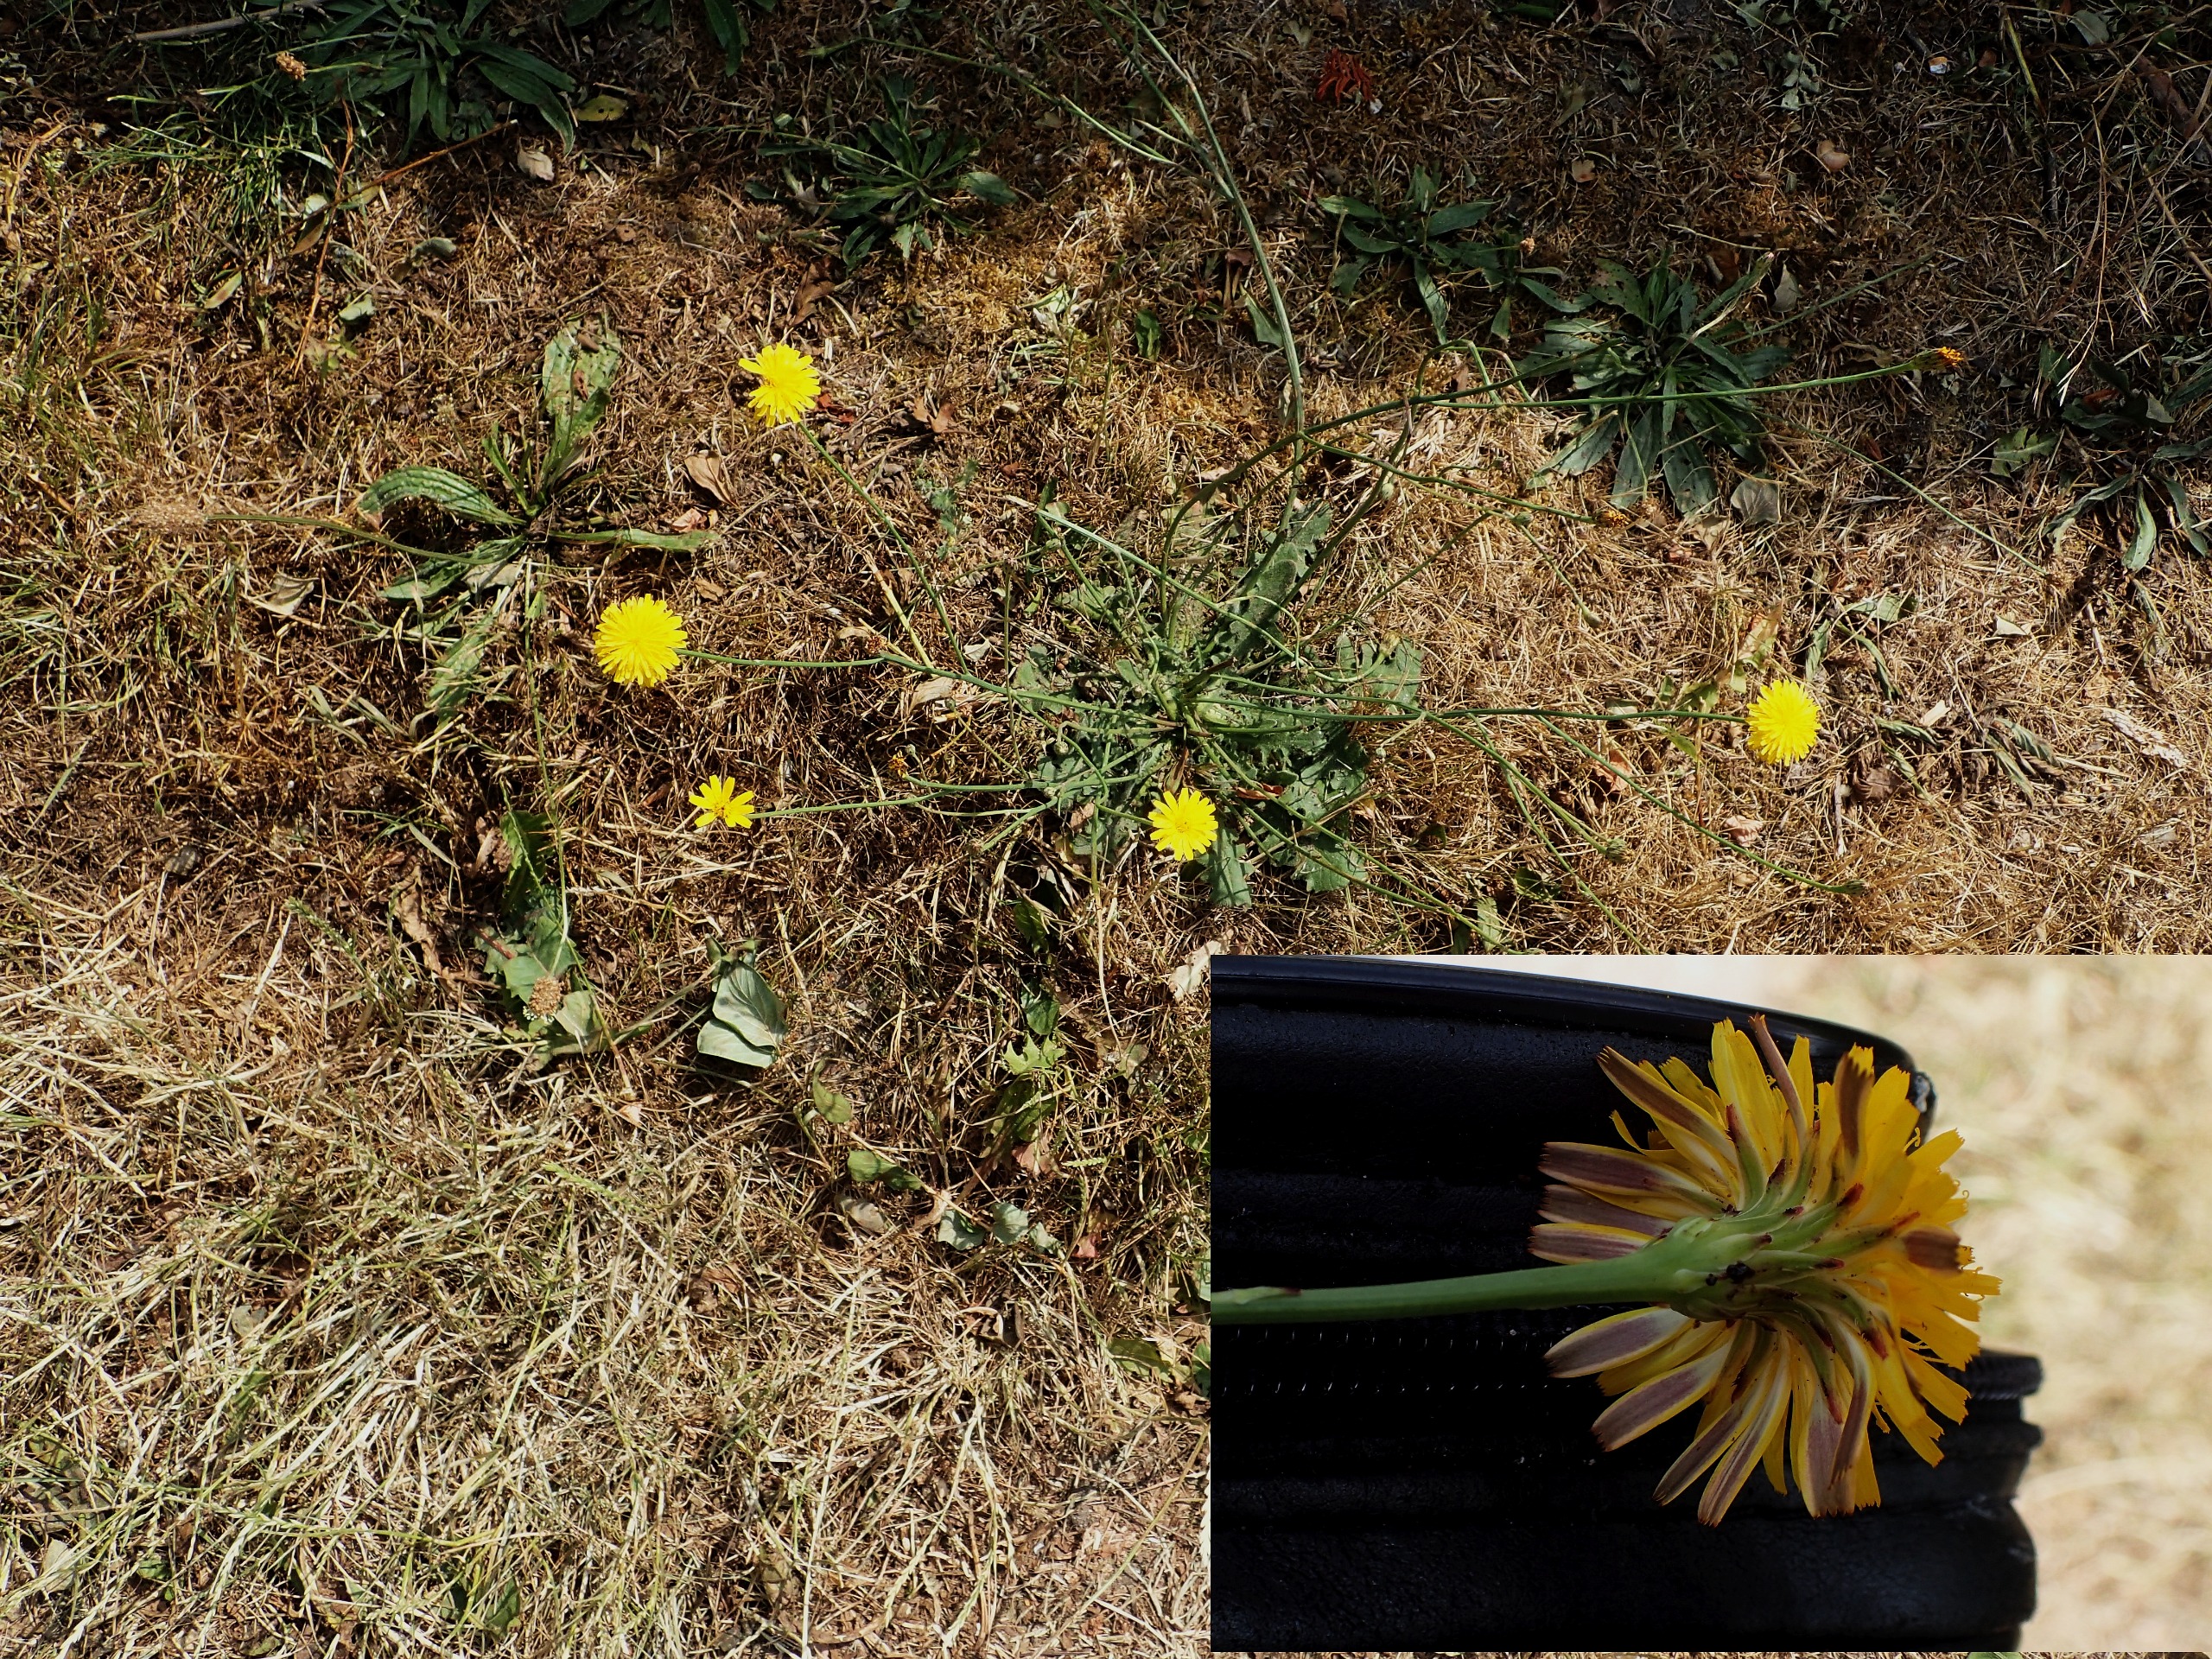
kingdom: Plantae
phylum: Tracheophyta
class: Magnoliopsida
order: Asterales
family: Asteraceae
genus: Hypochaeris
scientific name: Hypochaeris radicata
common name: Almindelig kongepen
